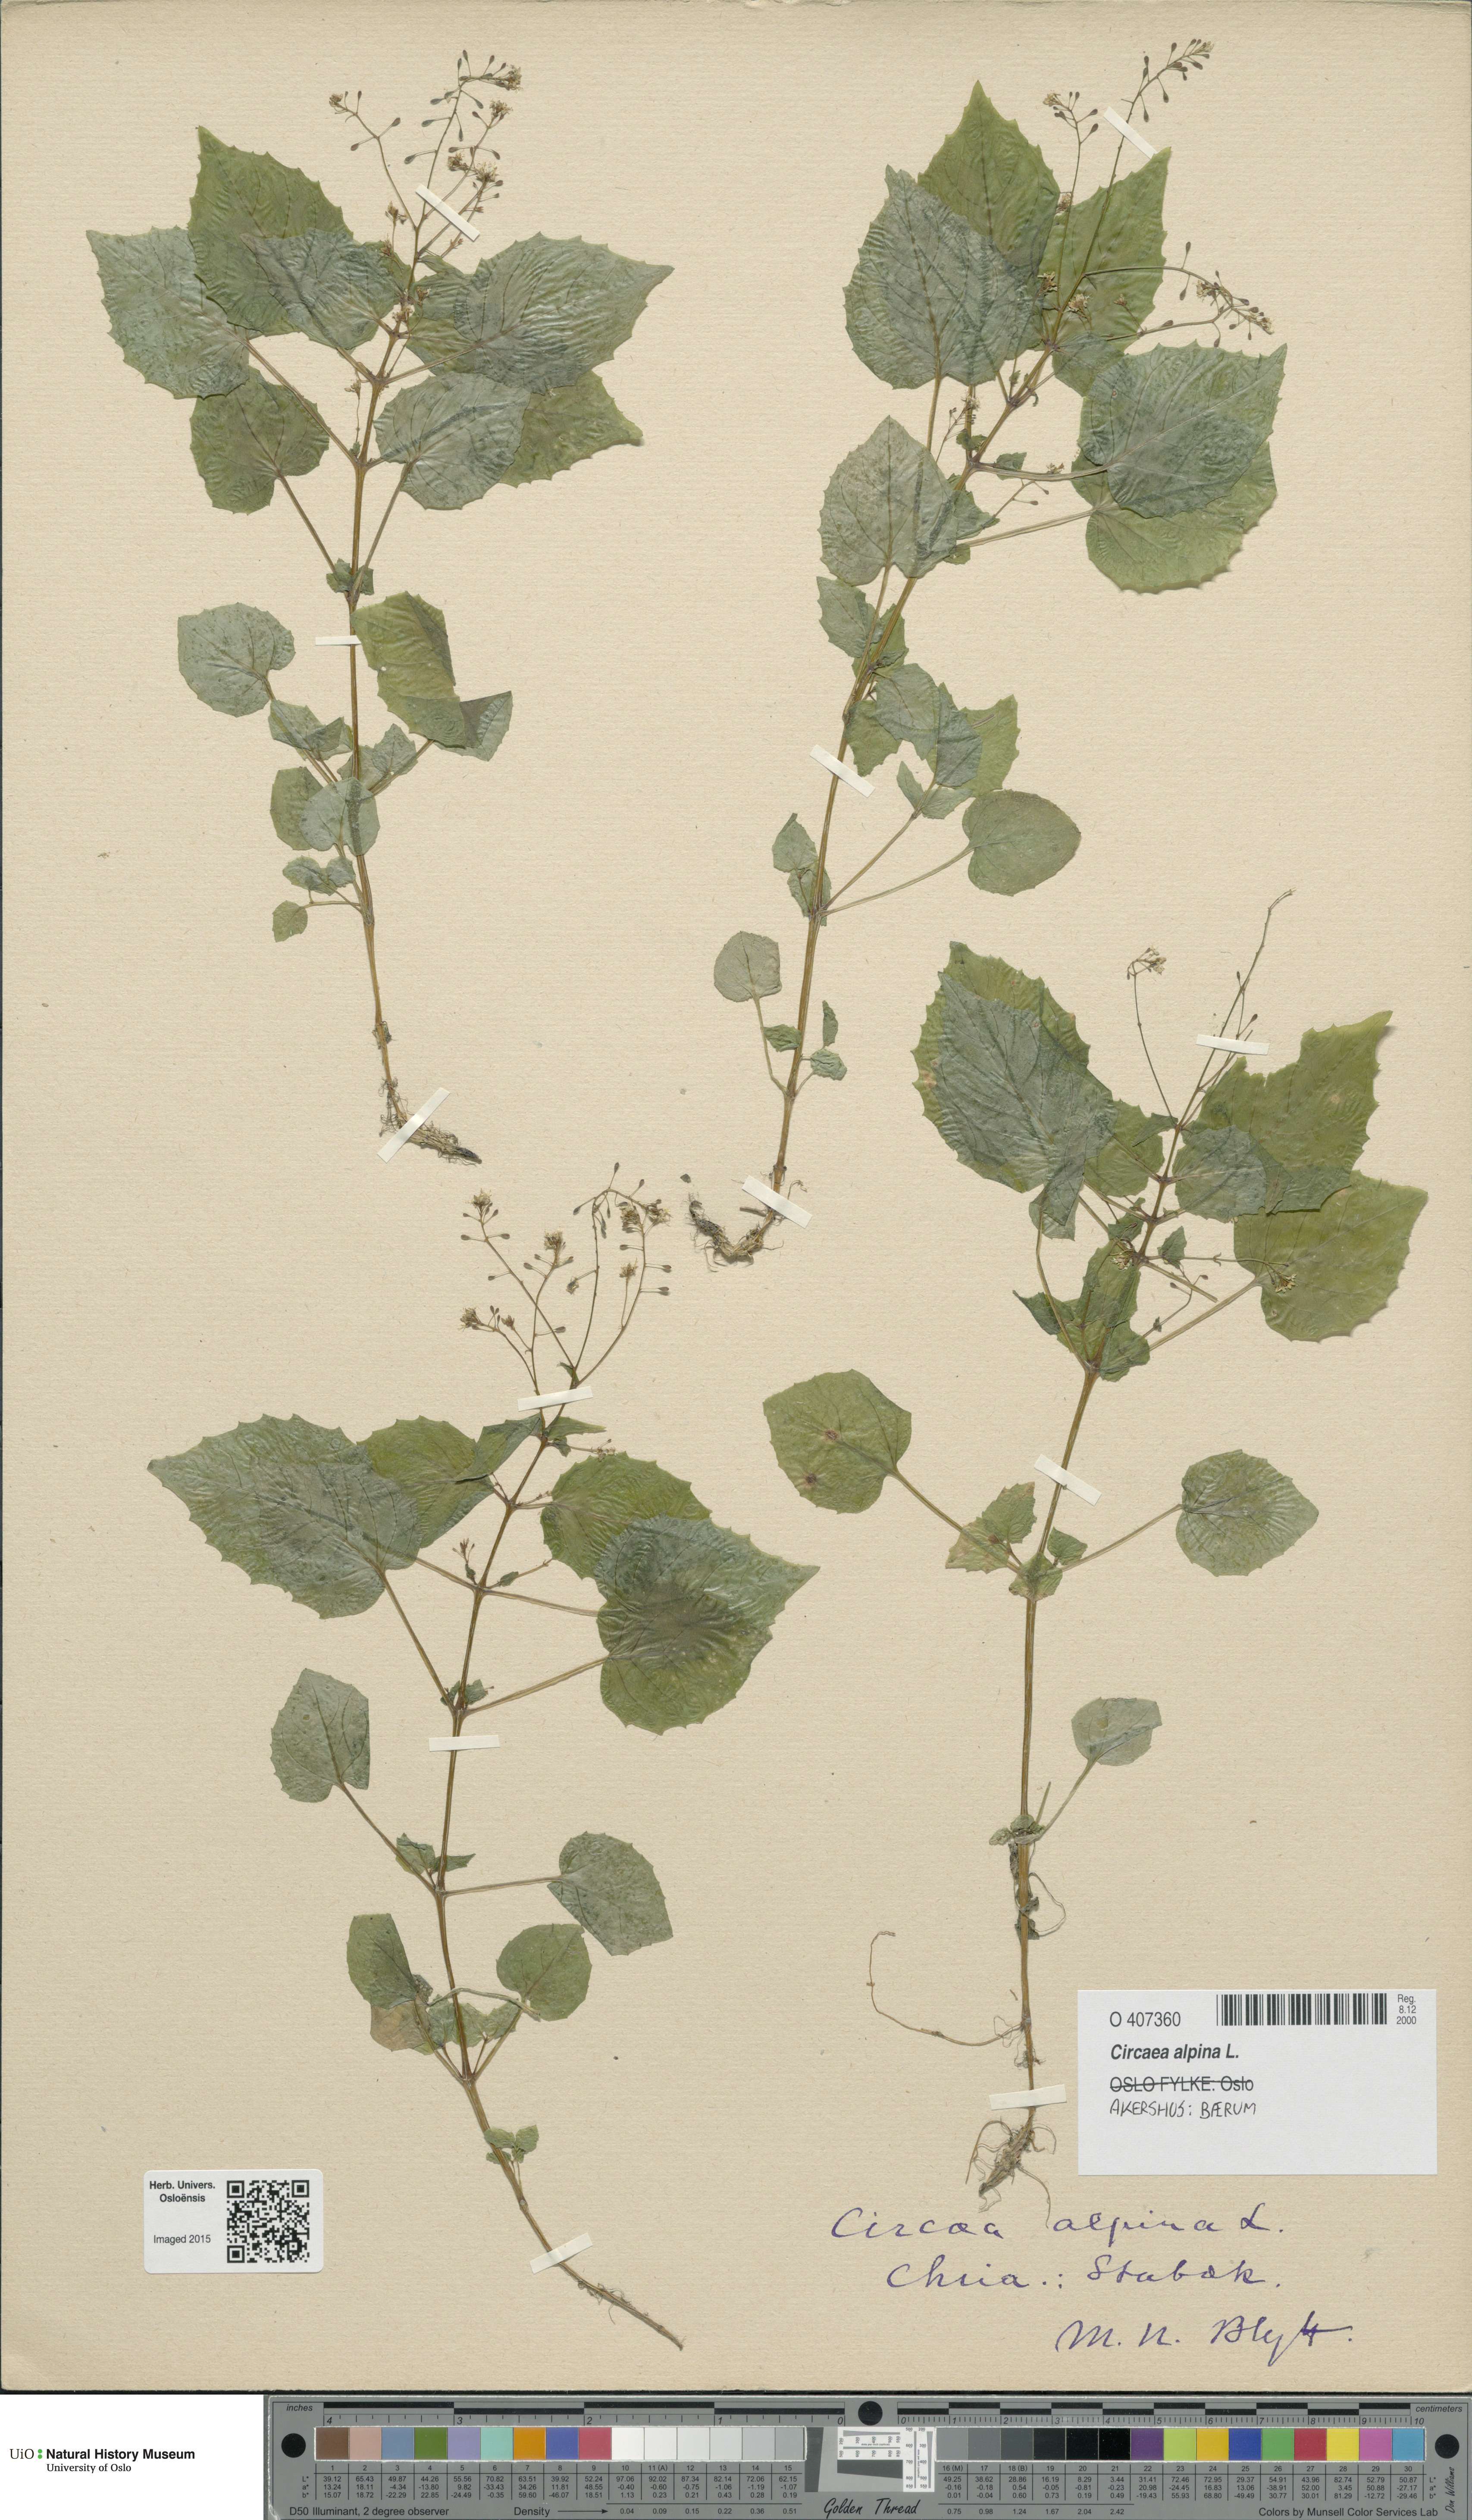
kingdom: Plantae
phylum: Tracheophyta
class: Magnoliopsida
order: Myrtales
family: Onagraceae
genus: Circaea
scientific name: Circaea alpina
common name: Alpine enchanter's-nightshade
